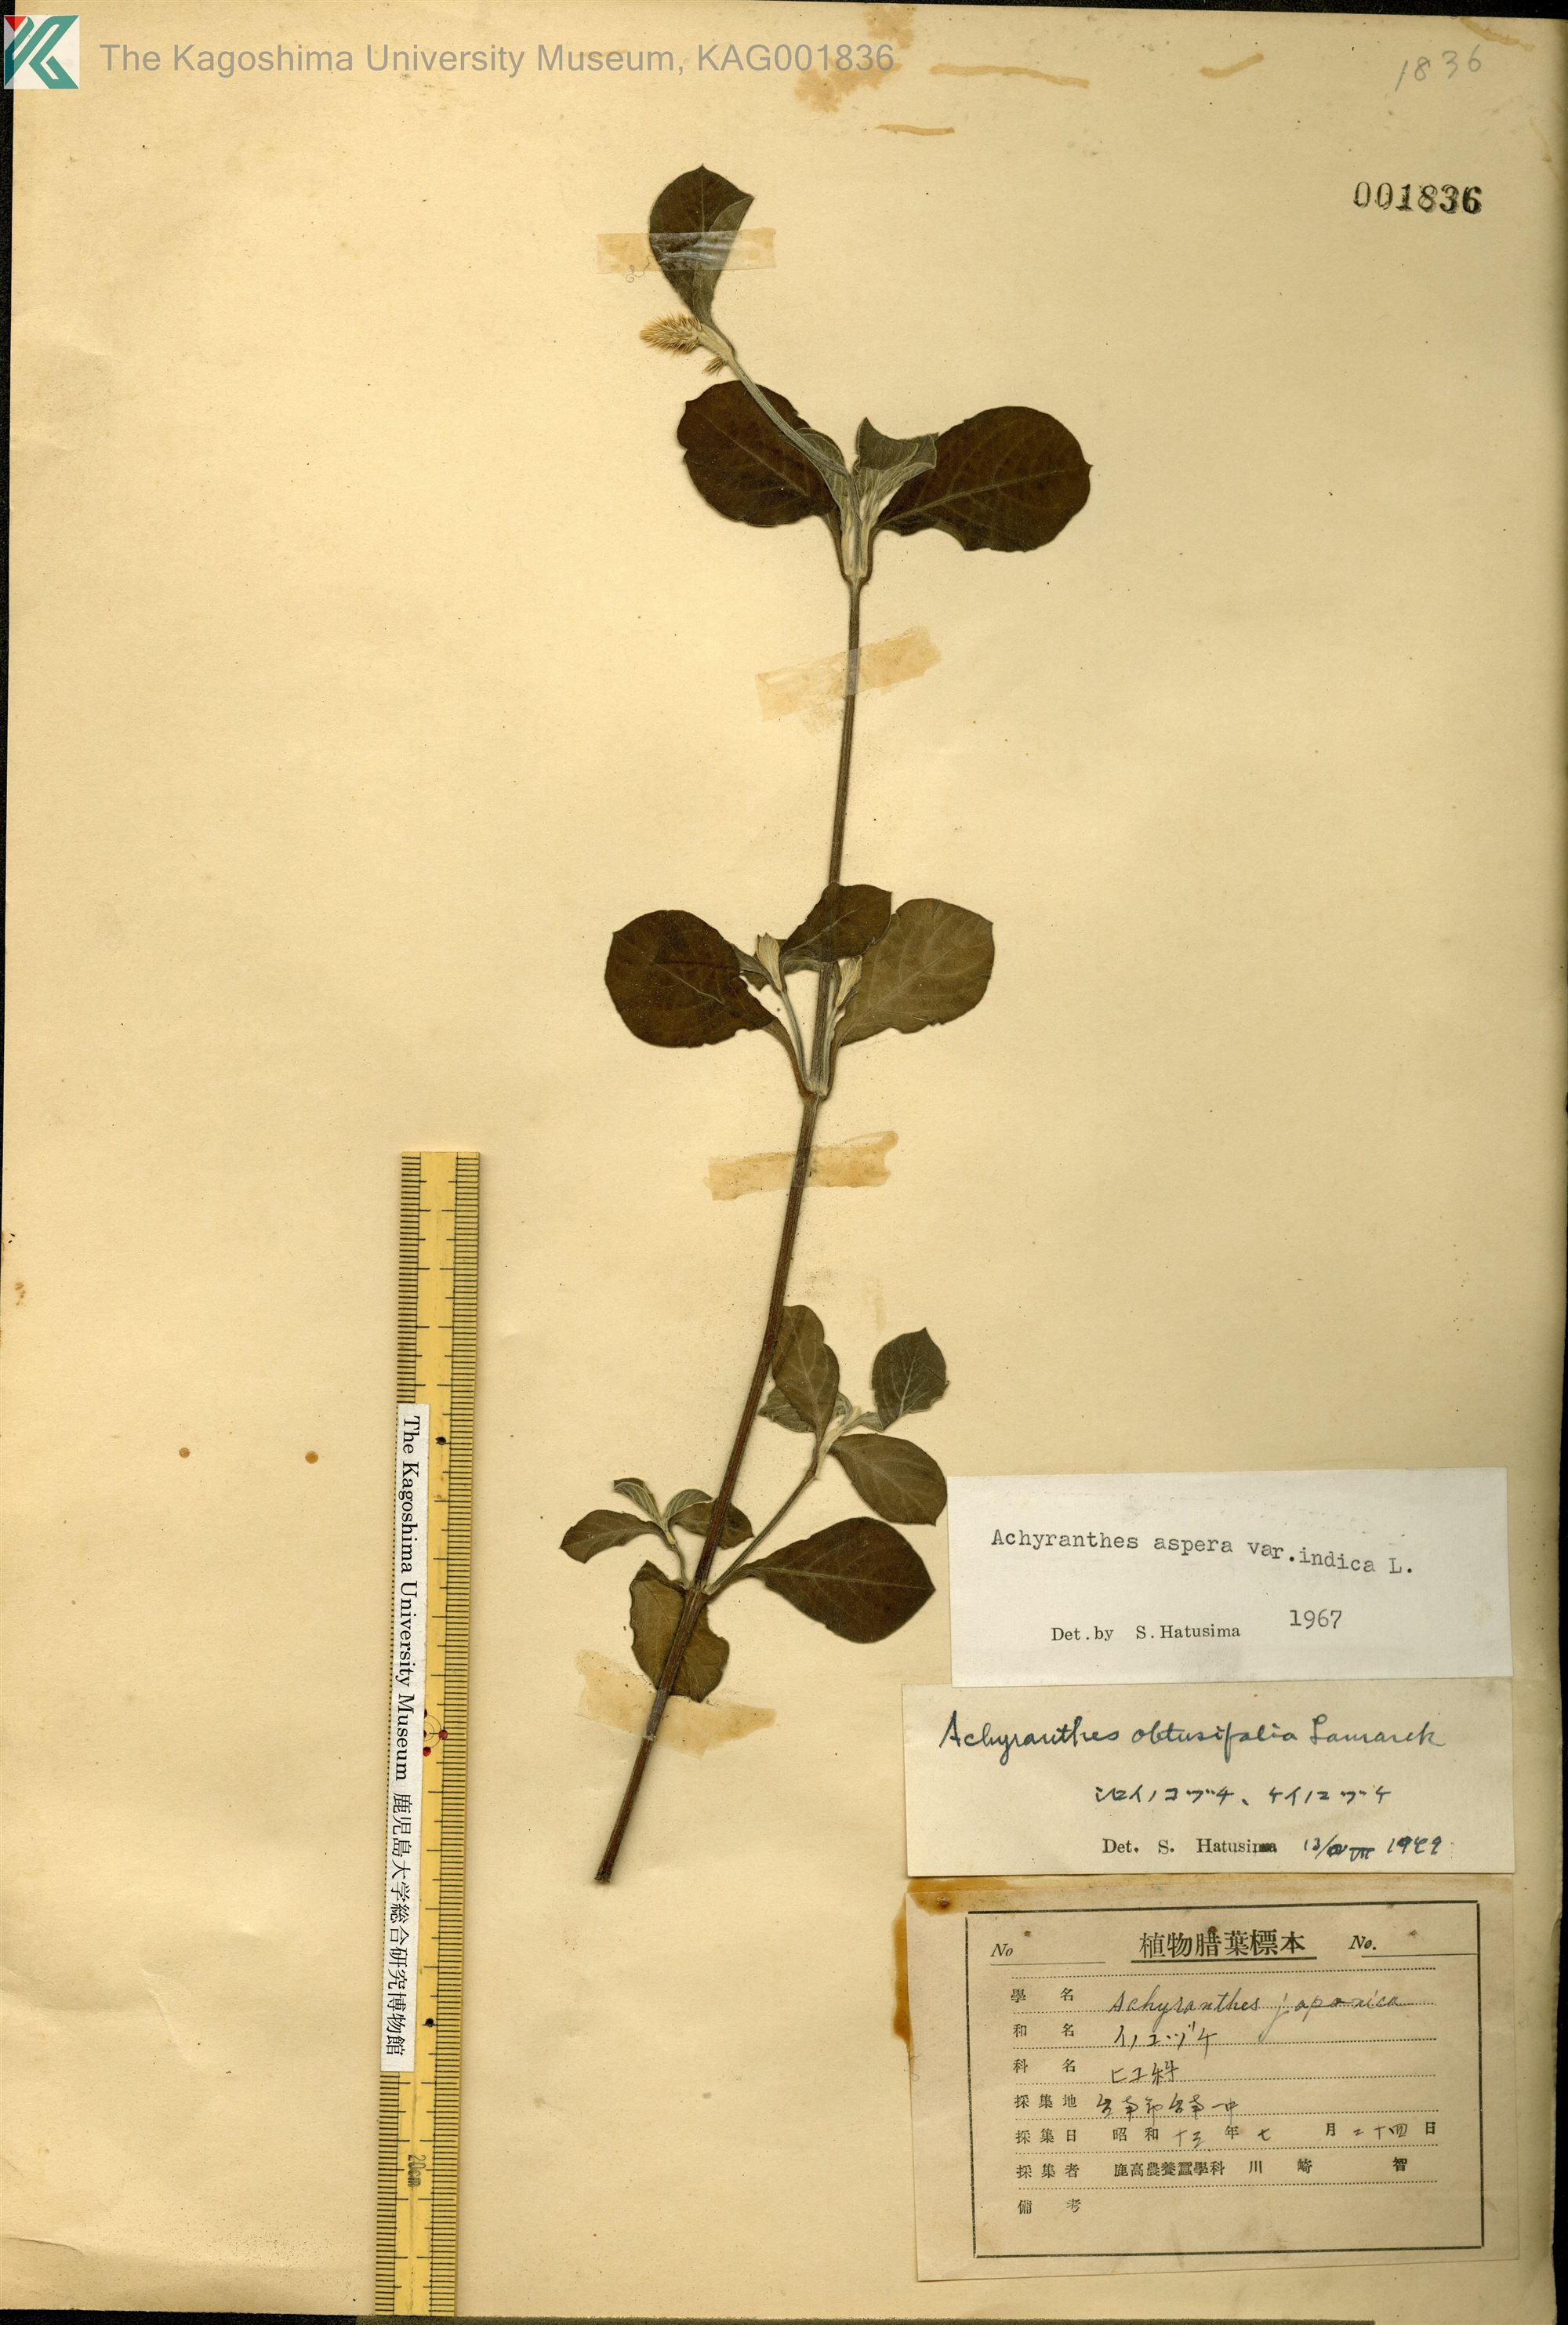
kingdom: Plantae
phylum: Tracheophyta
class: Magnoliopsida
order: Caryophyllales
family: Amaranthaceae
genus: Achyranthes
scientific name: Achyranthes aspera
